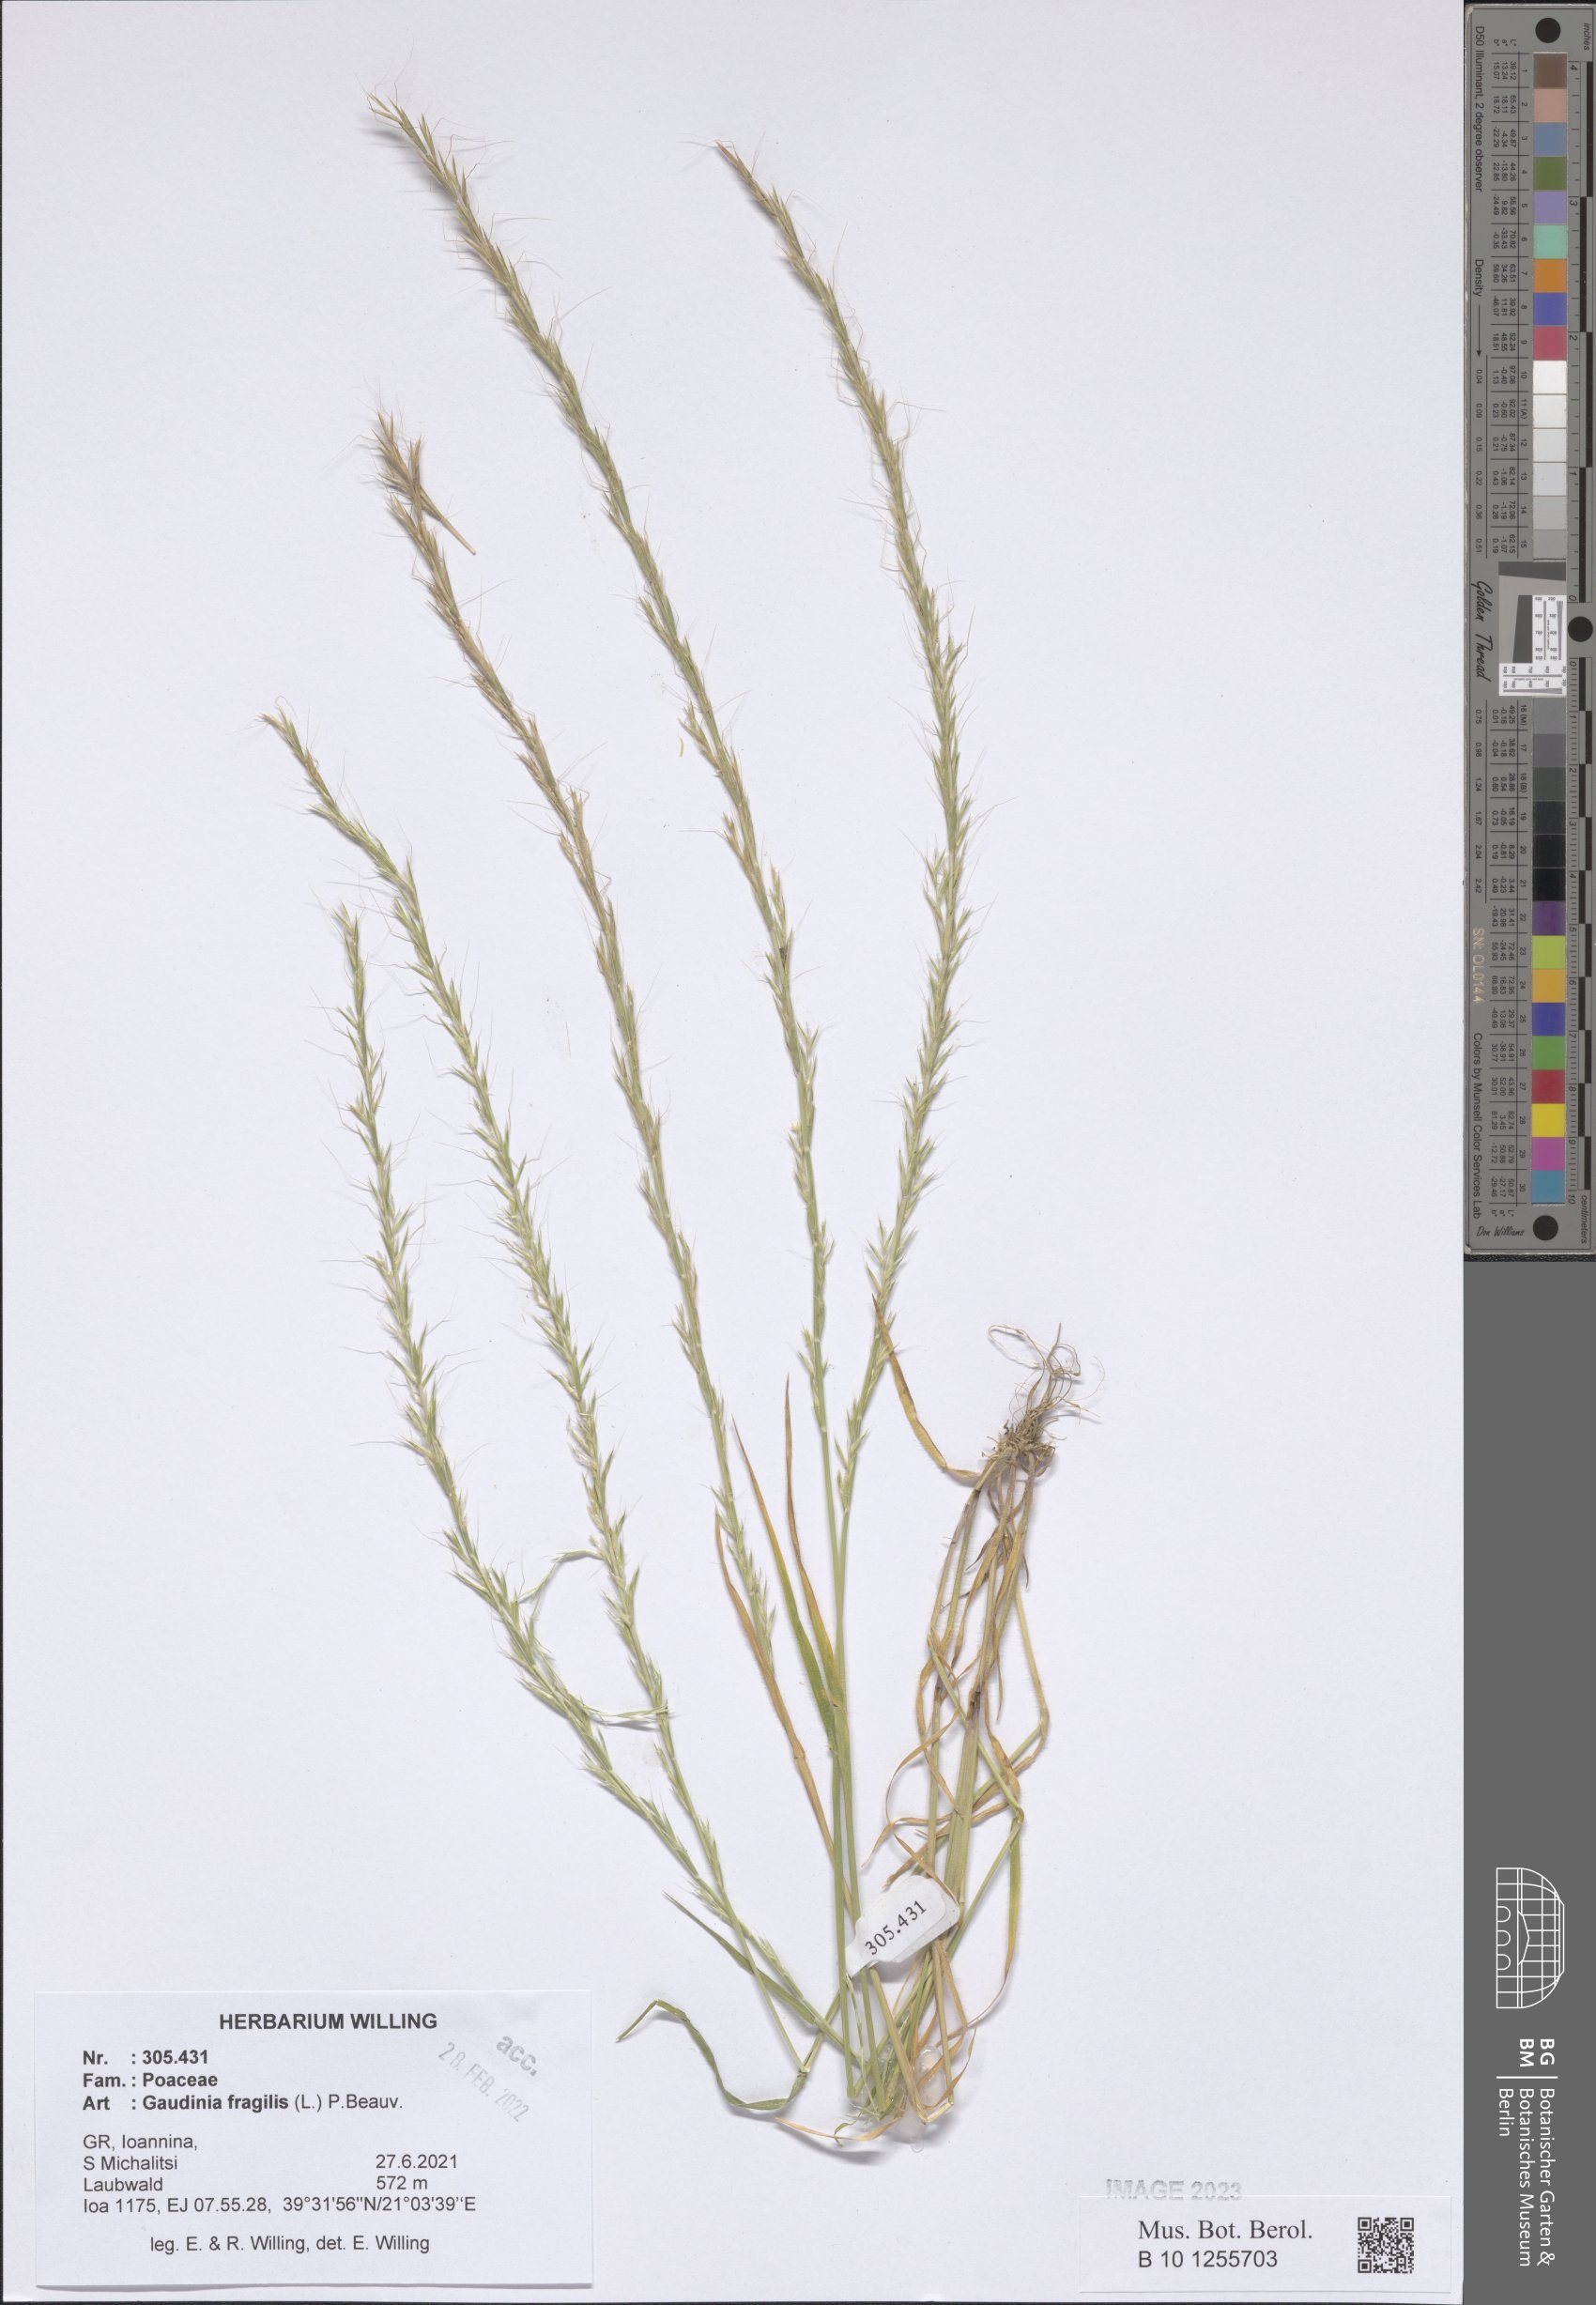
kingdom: Plantae
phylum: Tracheophyta
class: Liliopsida
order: Poales
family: Poaceae
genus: Gaudinia
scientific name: Gaudinia fragilis
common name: French oat-grass
